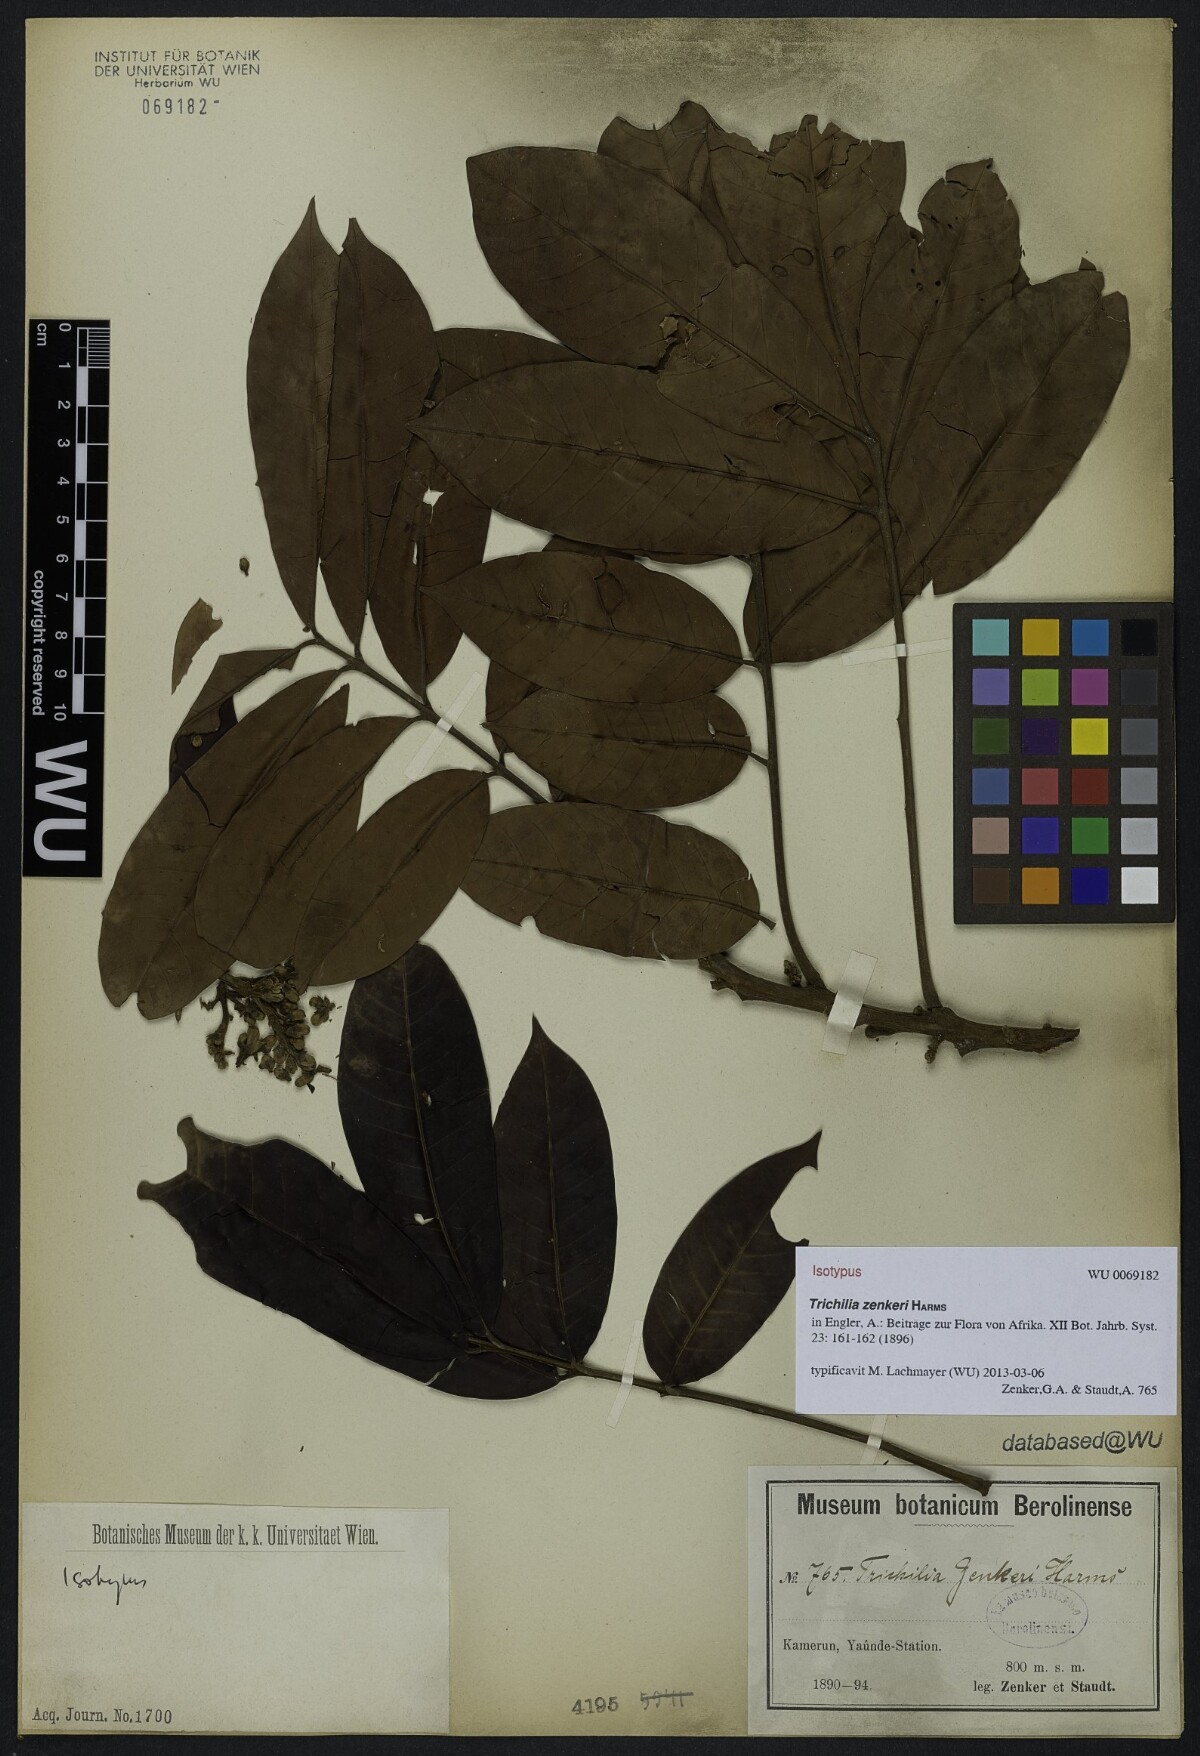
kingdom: Plantae
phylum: Tracheophyta
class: Magnoliopsida
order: Sapindales
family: Meliaceae
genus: Trichilia
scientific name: Trichilia welwitschii
